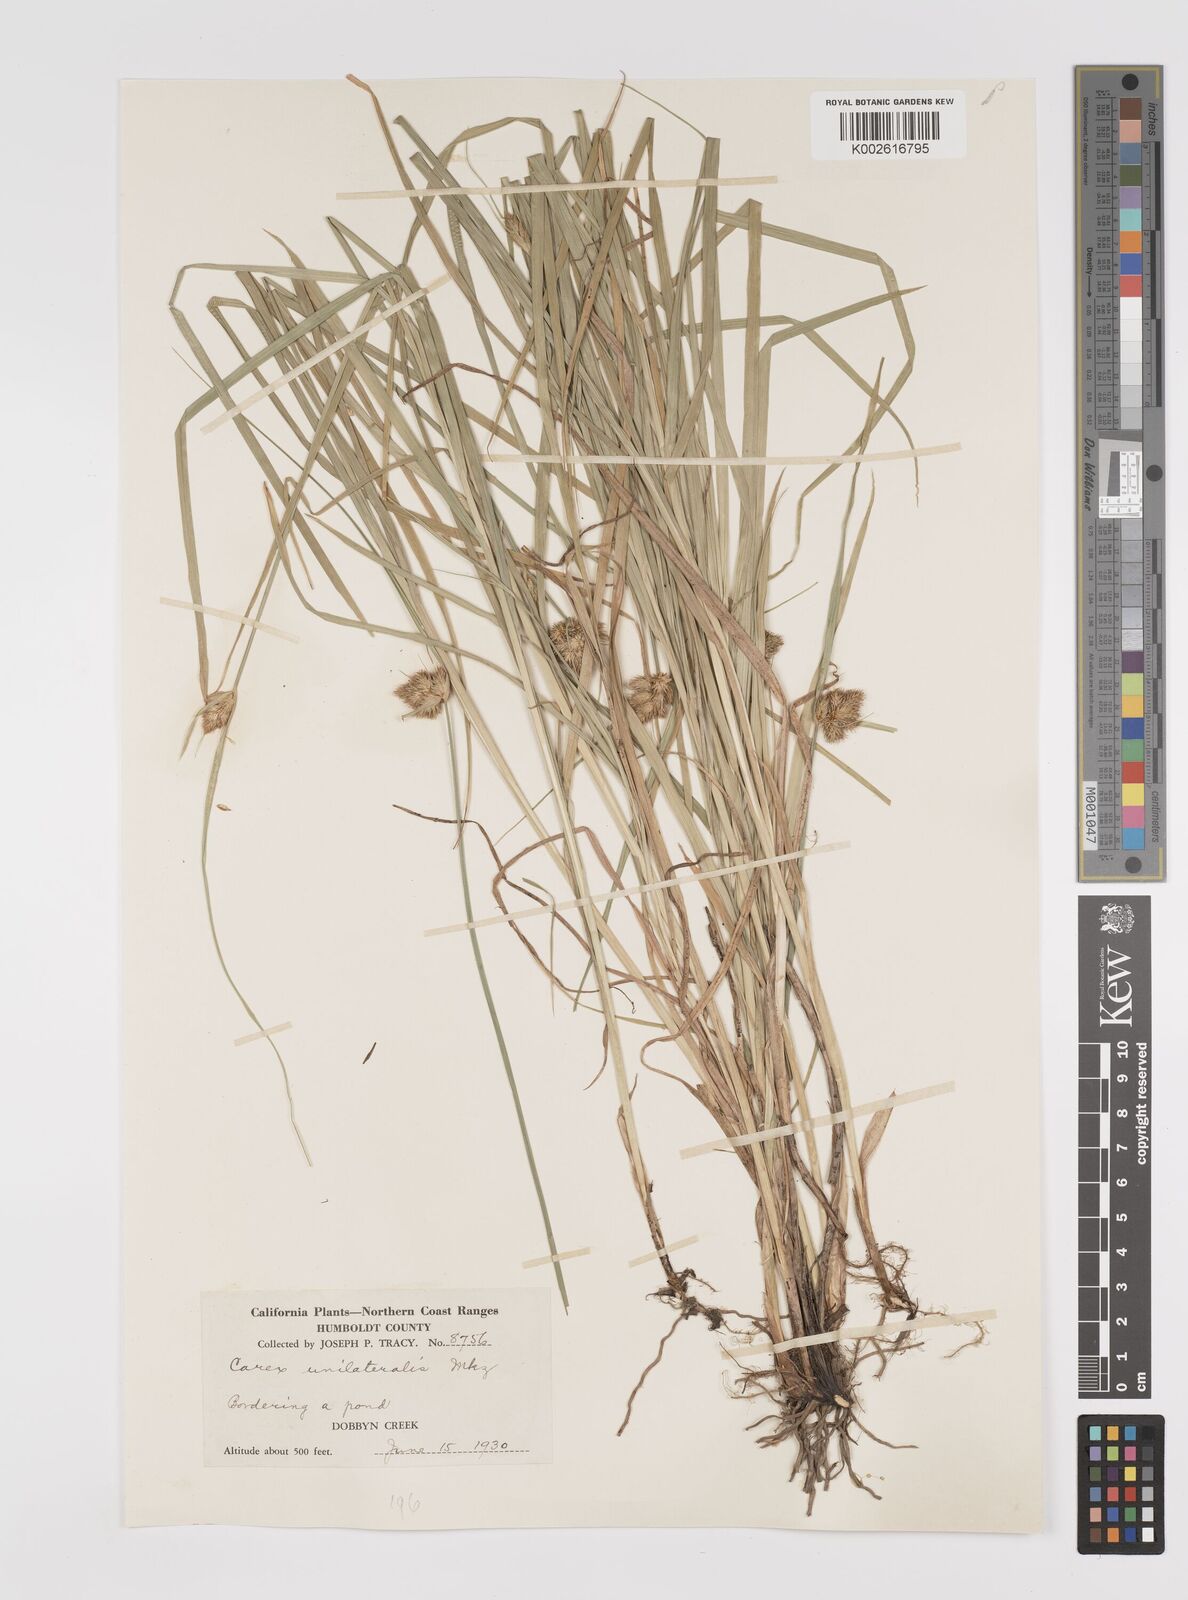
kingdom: Plantae
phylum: Tracheophyta
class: Liliopsida
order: Poales
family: Cyperaceae
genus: Carex
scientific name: Carex unilateralis
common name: Lateral sedge
